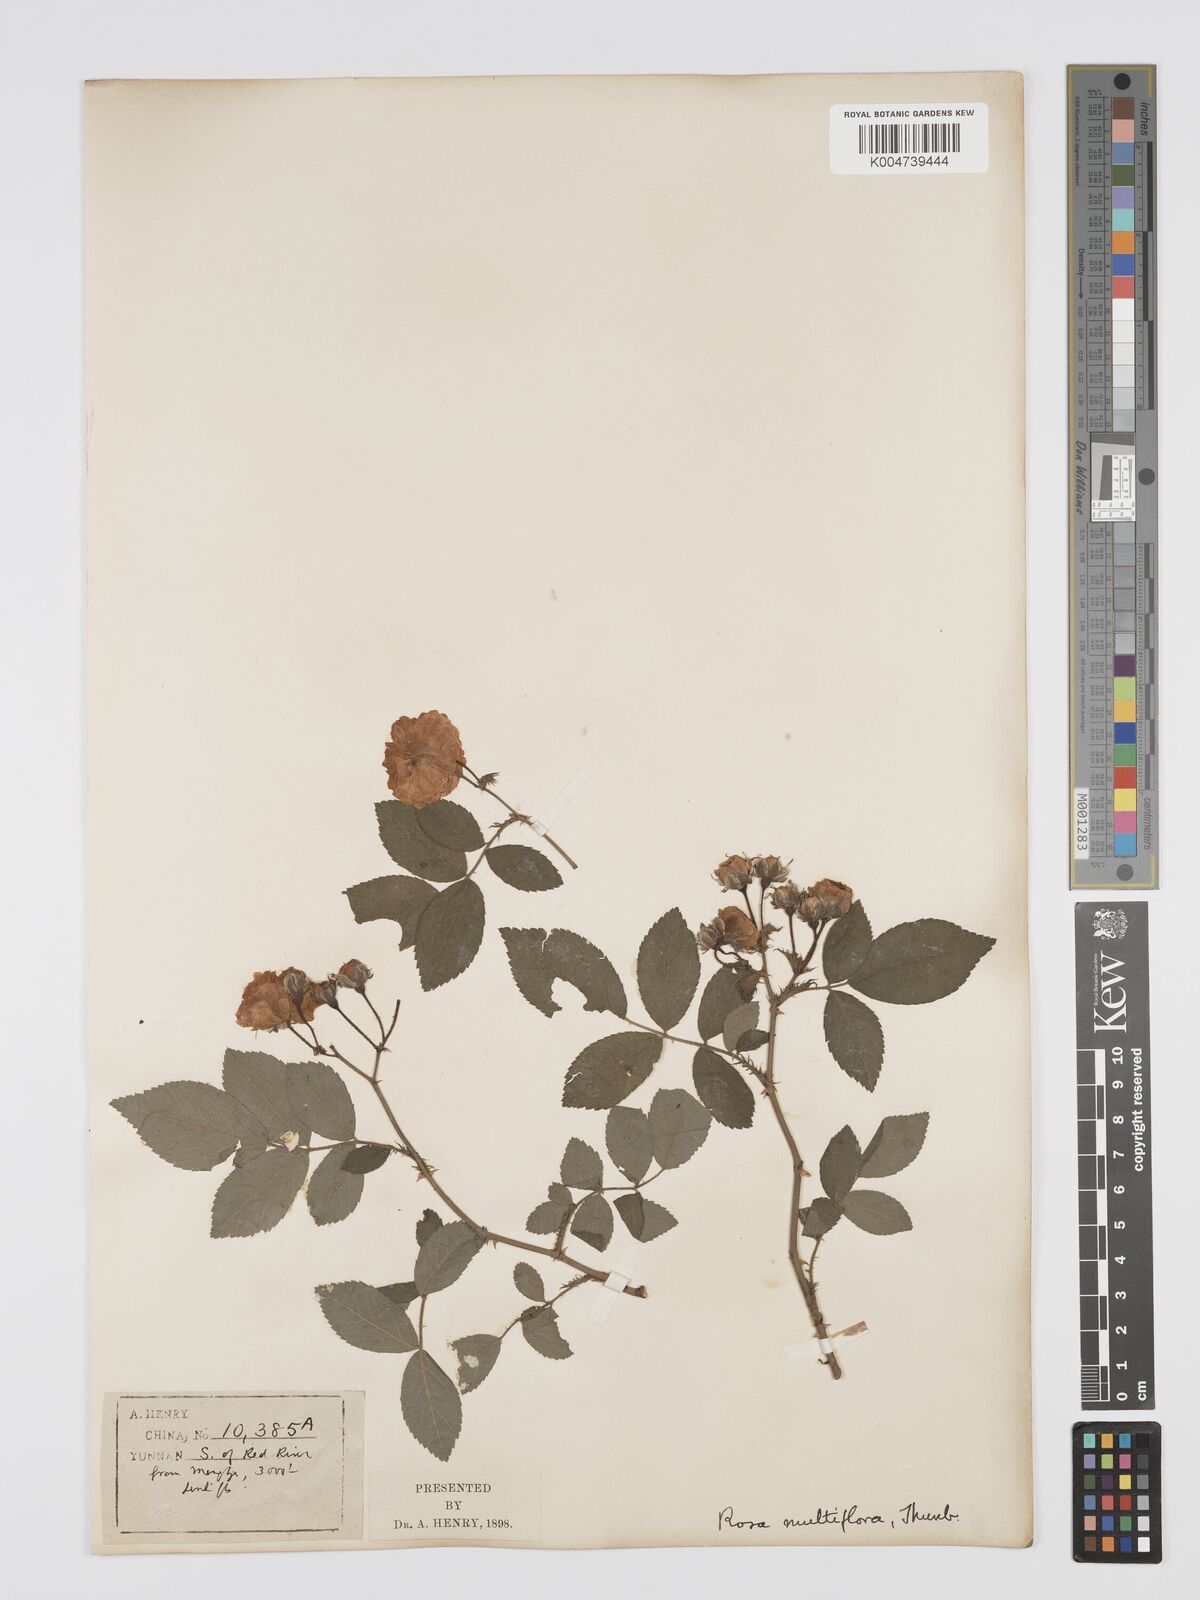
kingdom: Plantae
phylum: Tracheophyta
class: Magnoliopsida
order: Rosales
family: Rosaceae
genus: Rosa
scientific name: Rosa
